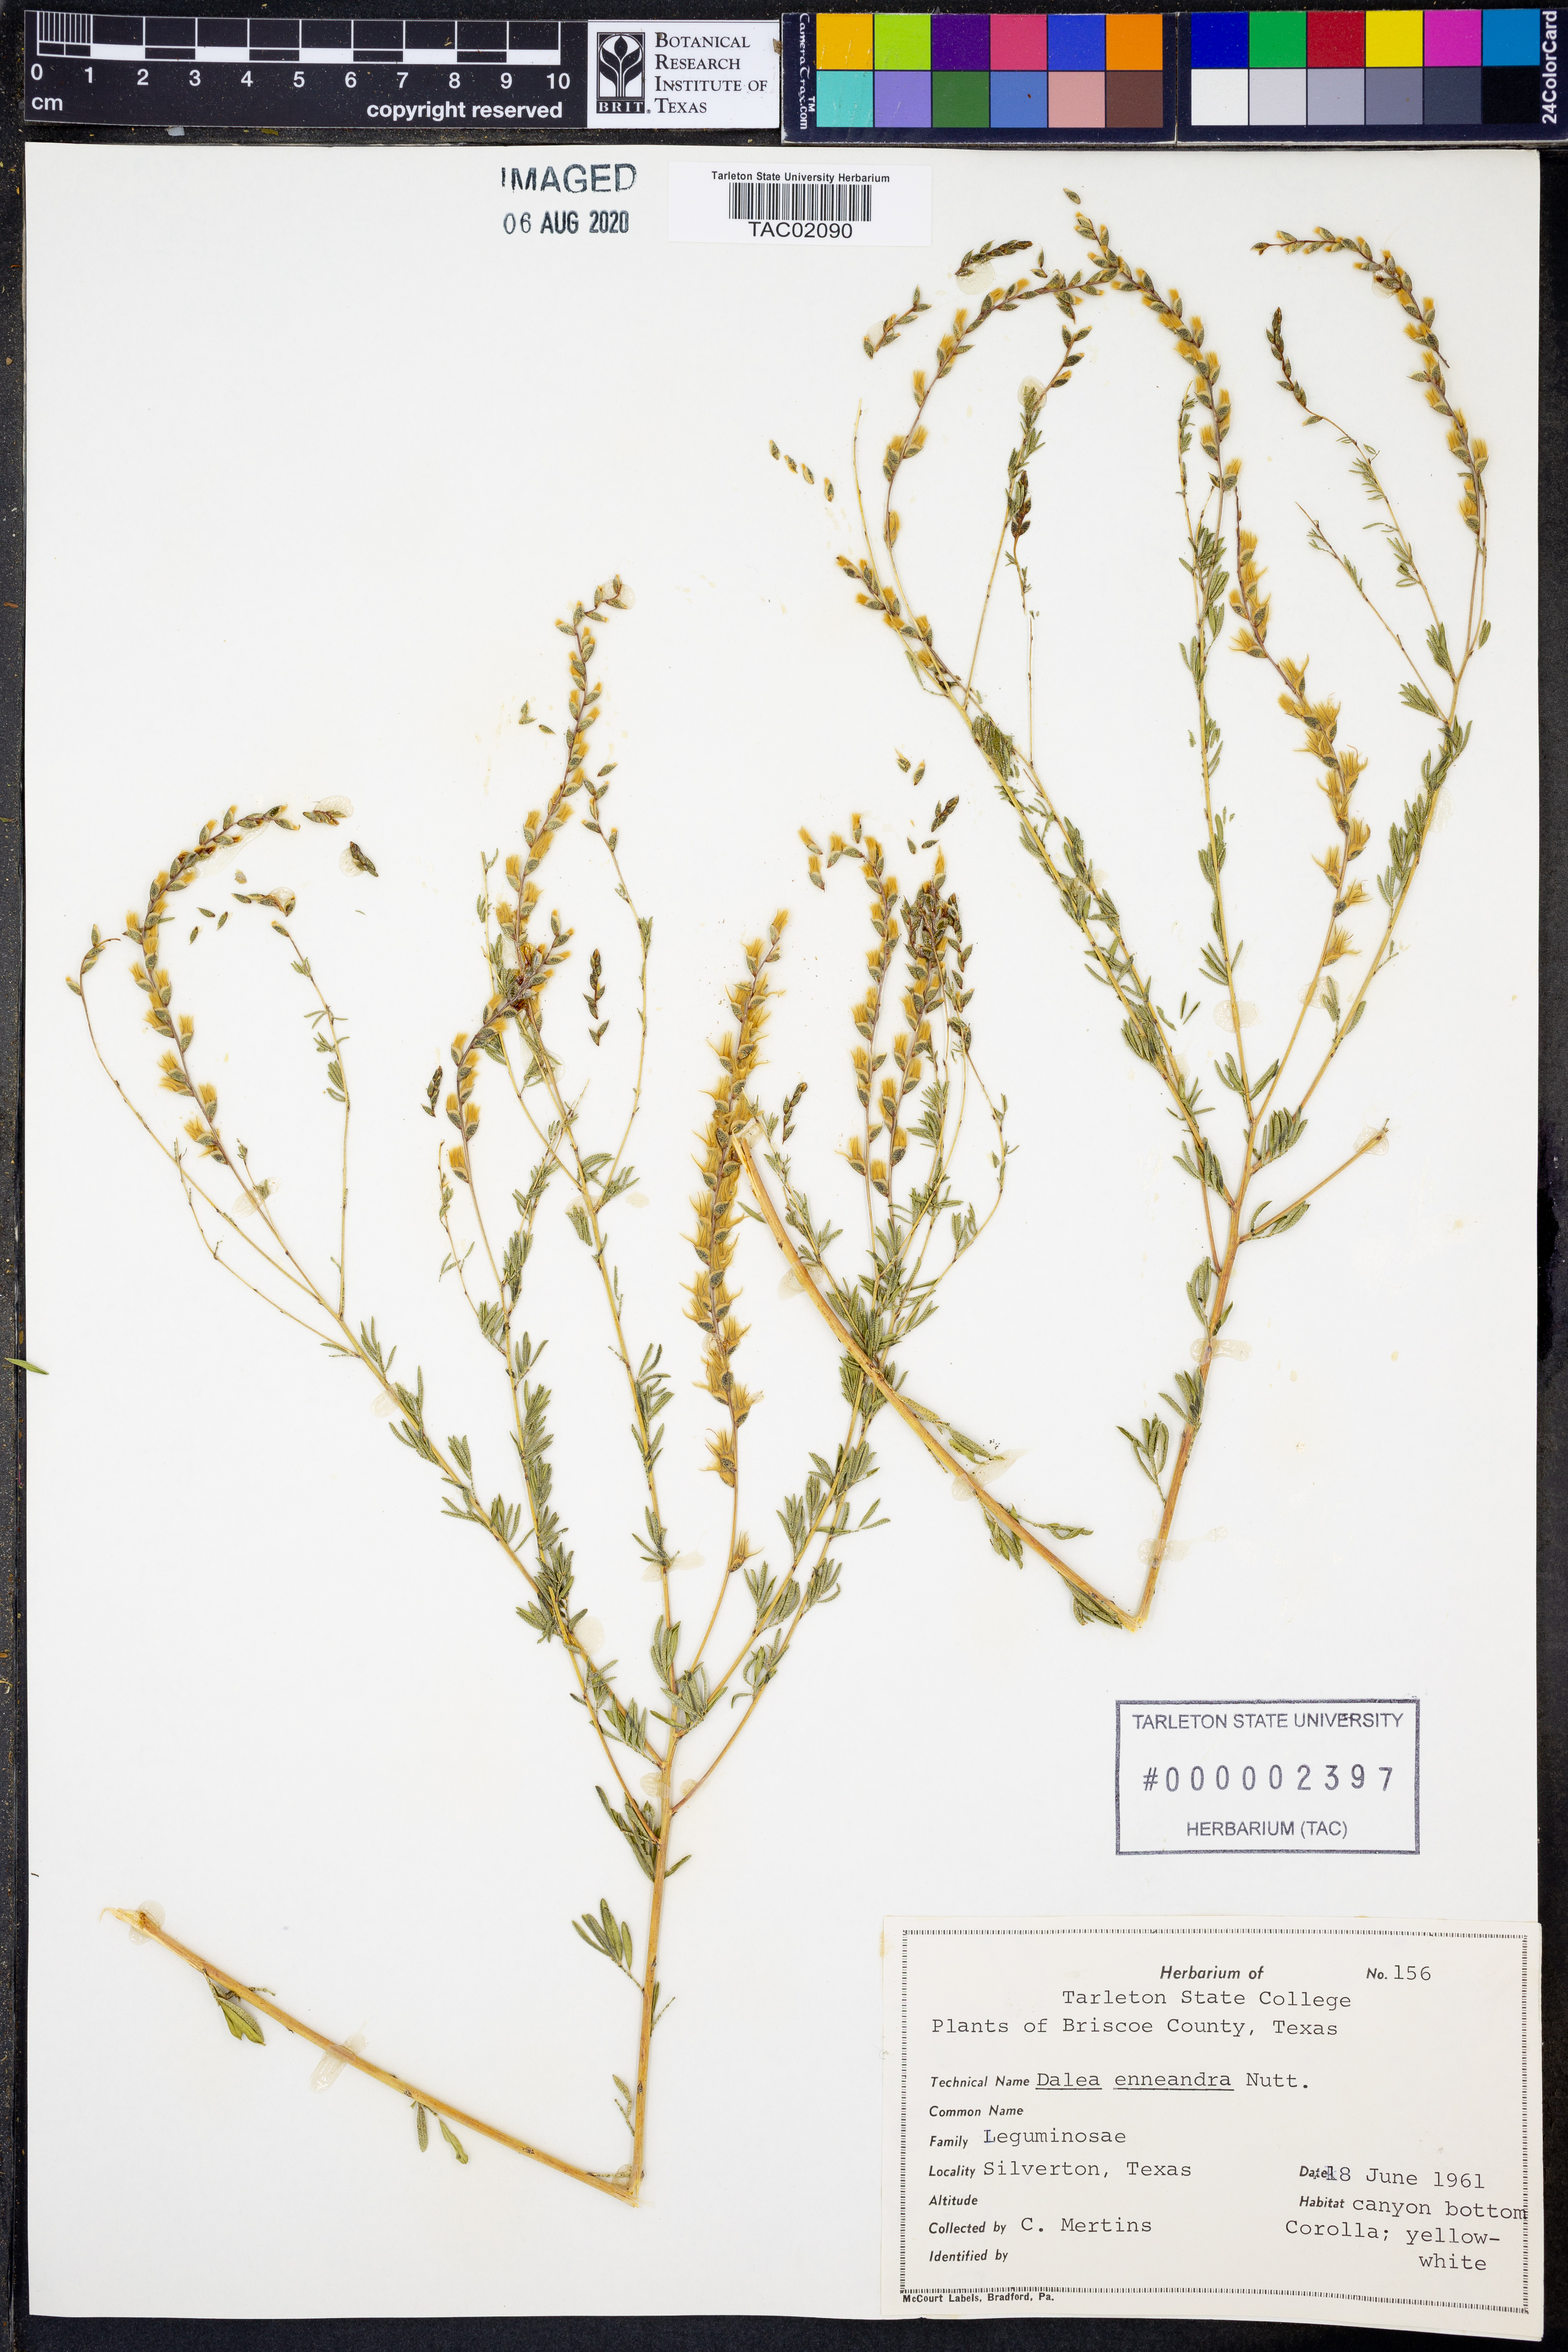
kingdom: Plantae
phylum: Tracheophyta
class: Magnoliopsida
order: Fabales
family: Fabaceae
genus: Dalea
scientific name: Dalea enneandra
